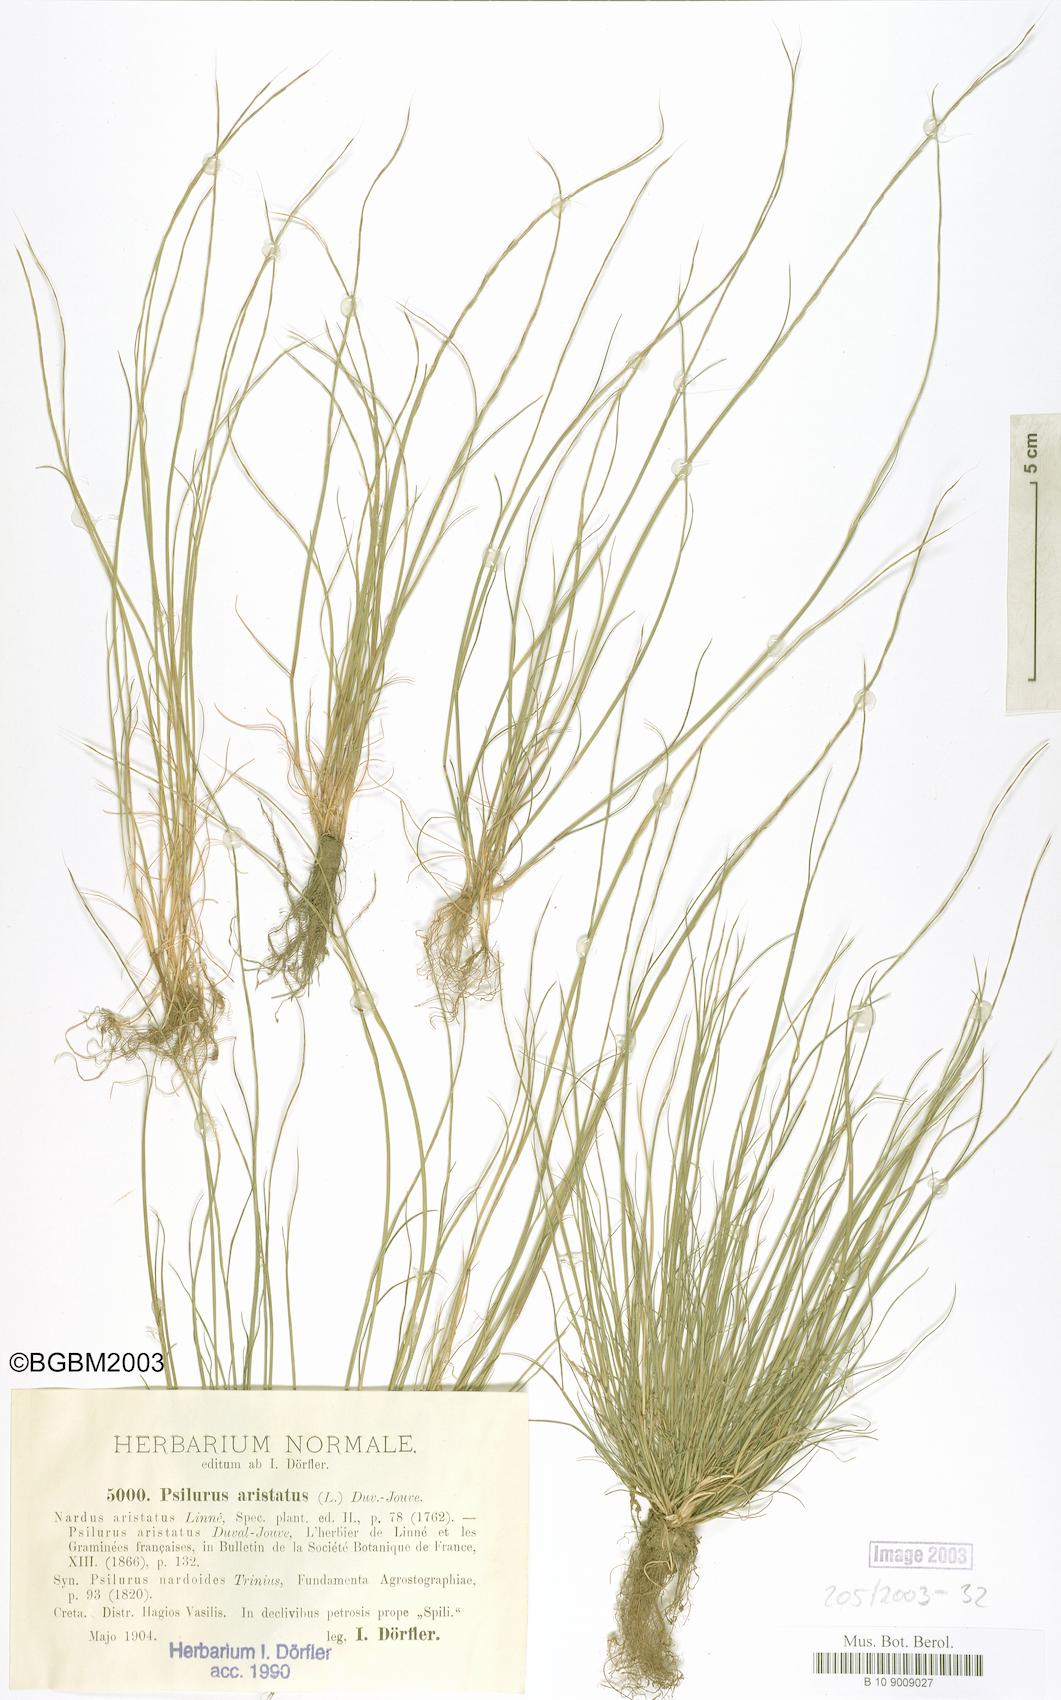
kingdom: Plantae
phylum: Tracheophyta
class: Liliopsida
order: Poales
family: Poaceae
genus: Festuca
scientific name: Festuca incurva
